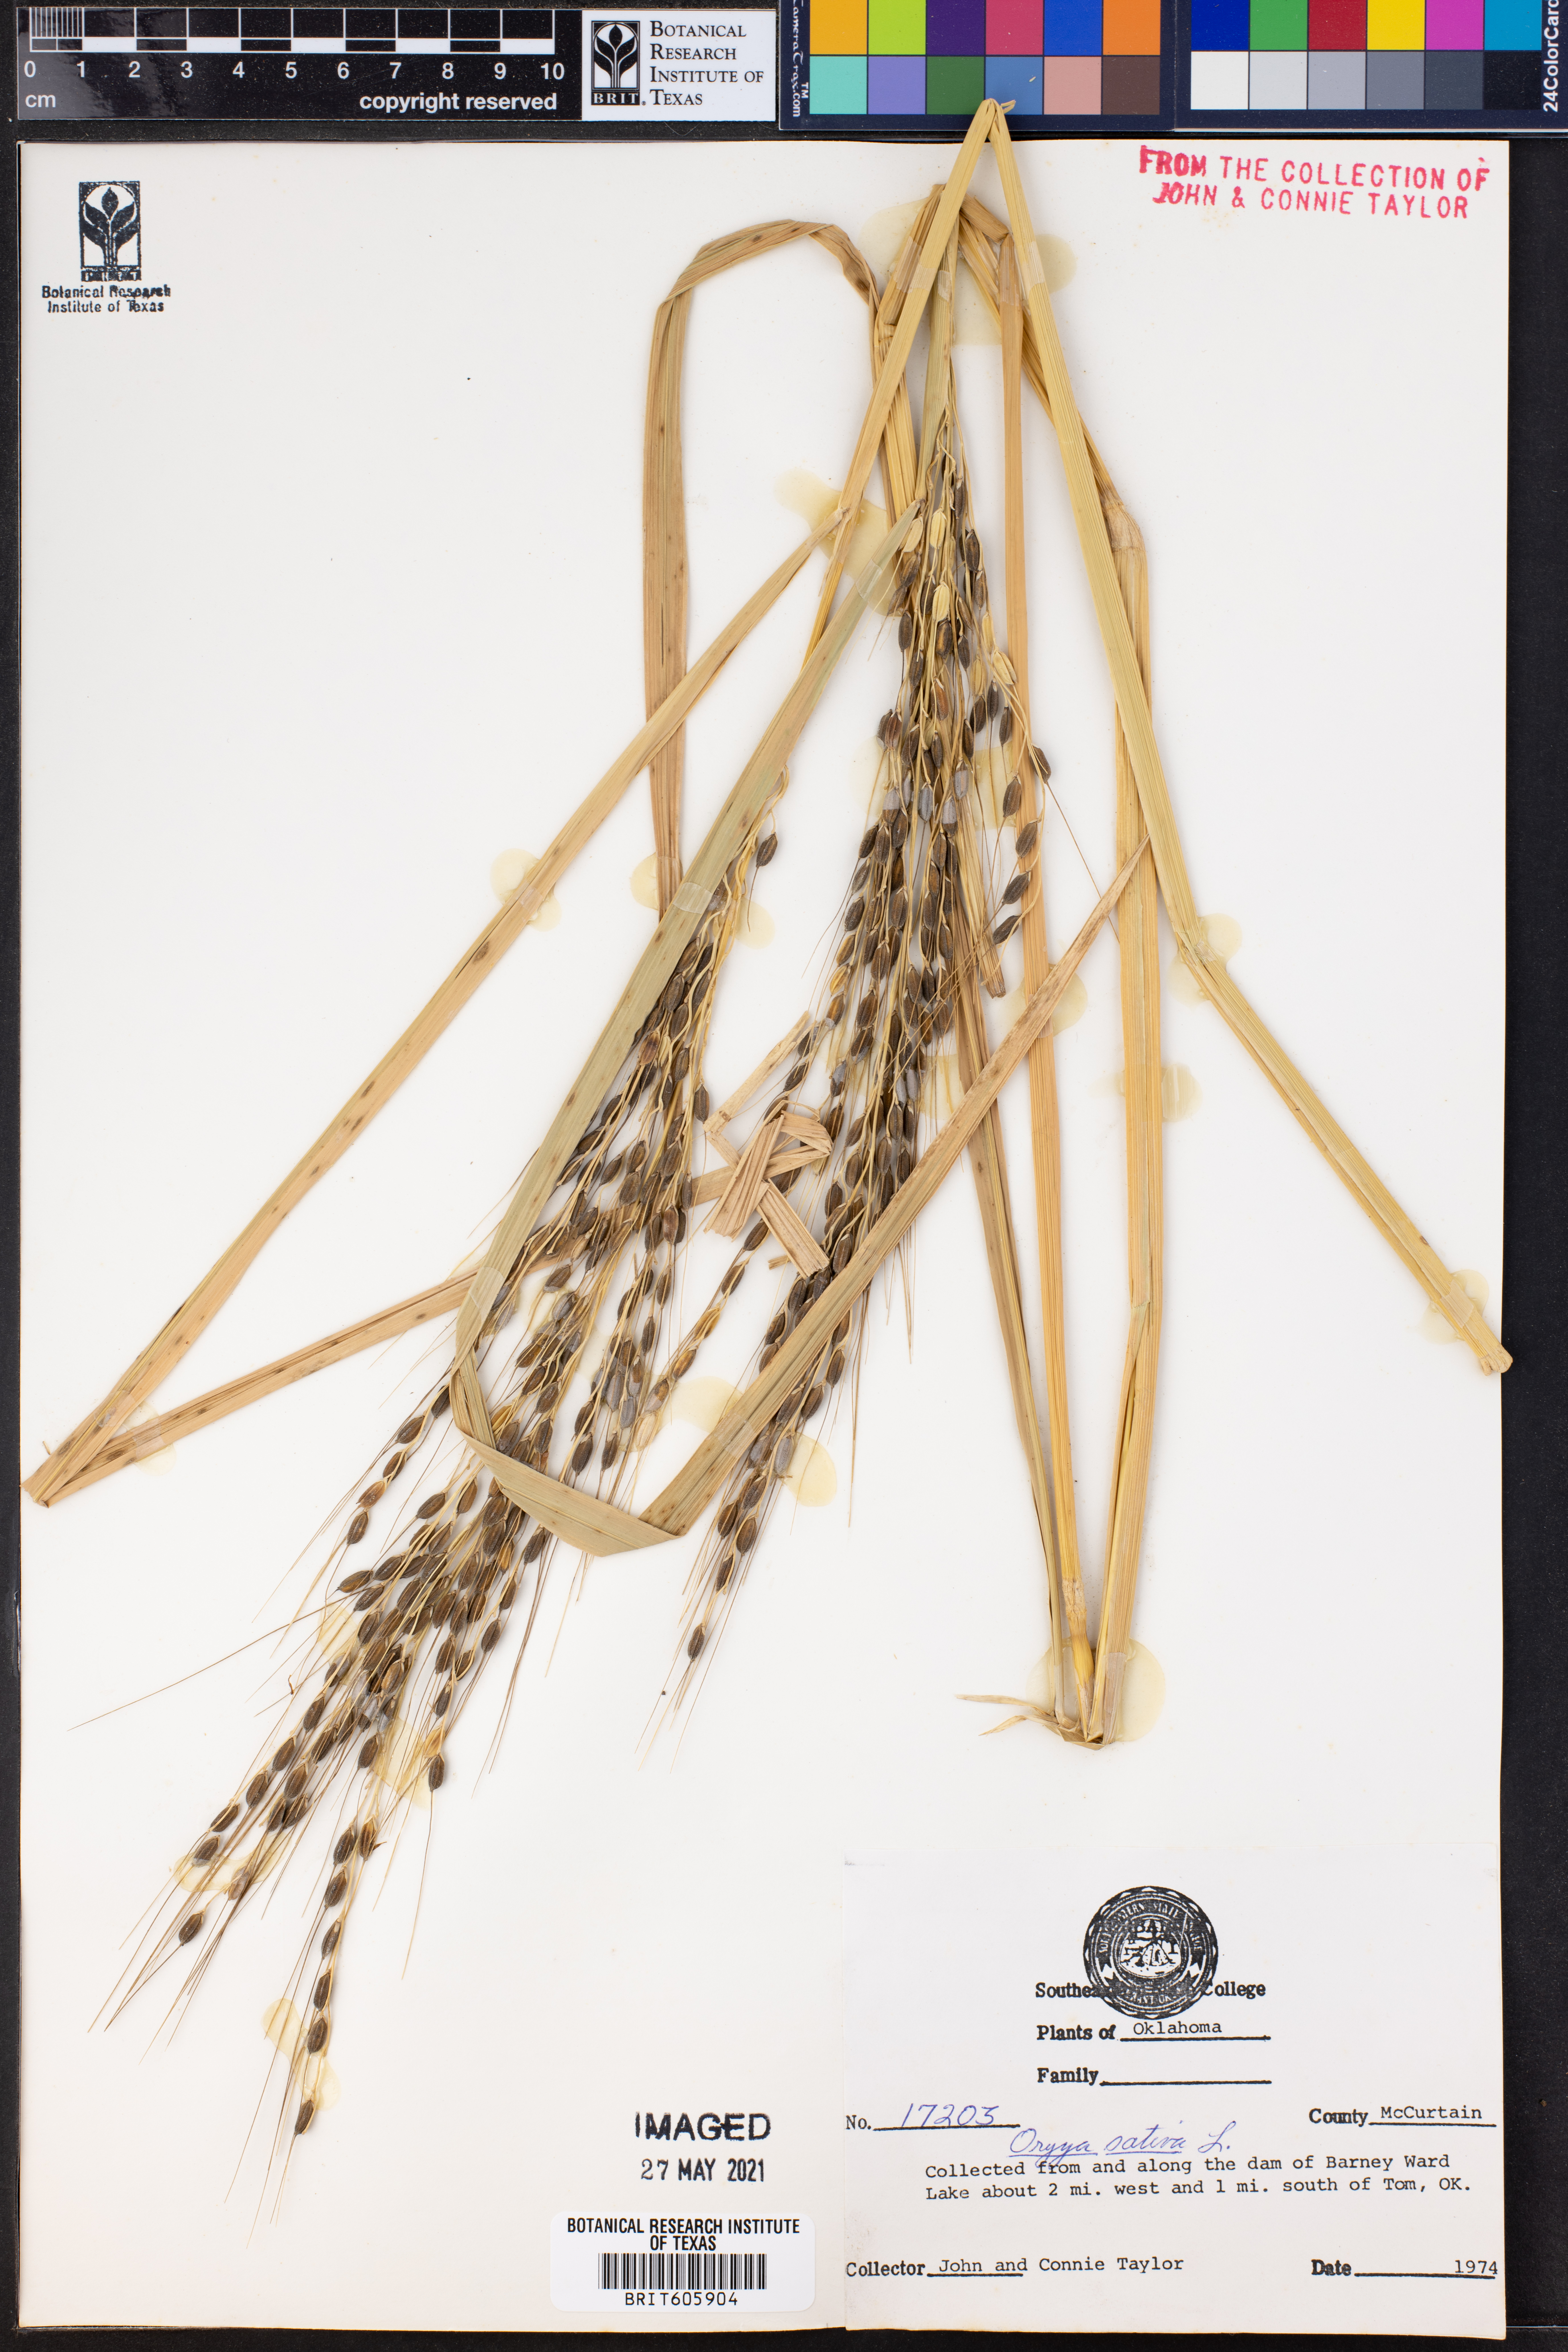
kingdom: Plantae
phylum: Tracheophyta
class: Liliopsida
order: Poales
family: Poaceae
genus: Oryza
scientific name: Oryza sativa
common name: Rice
